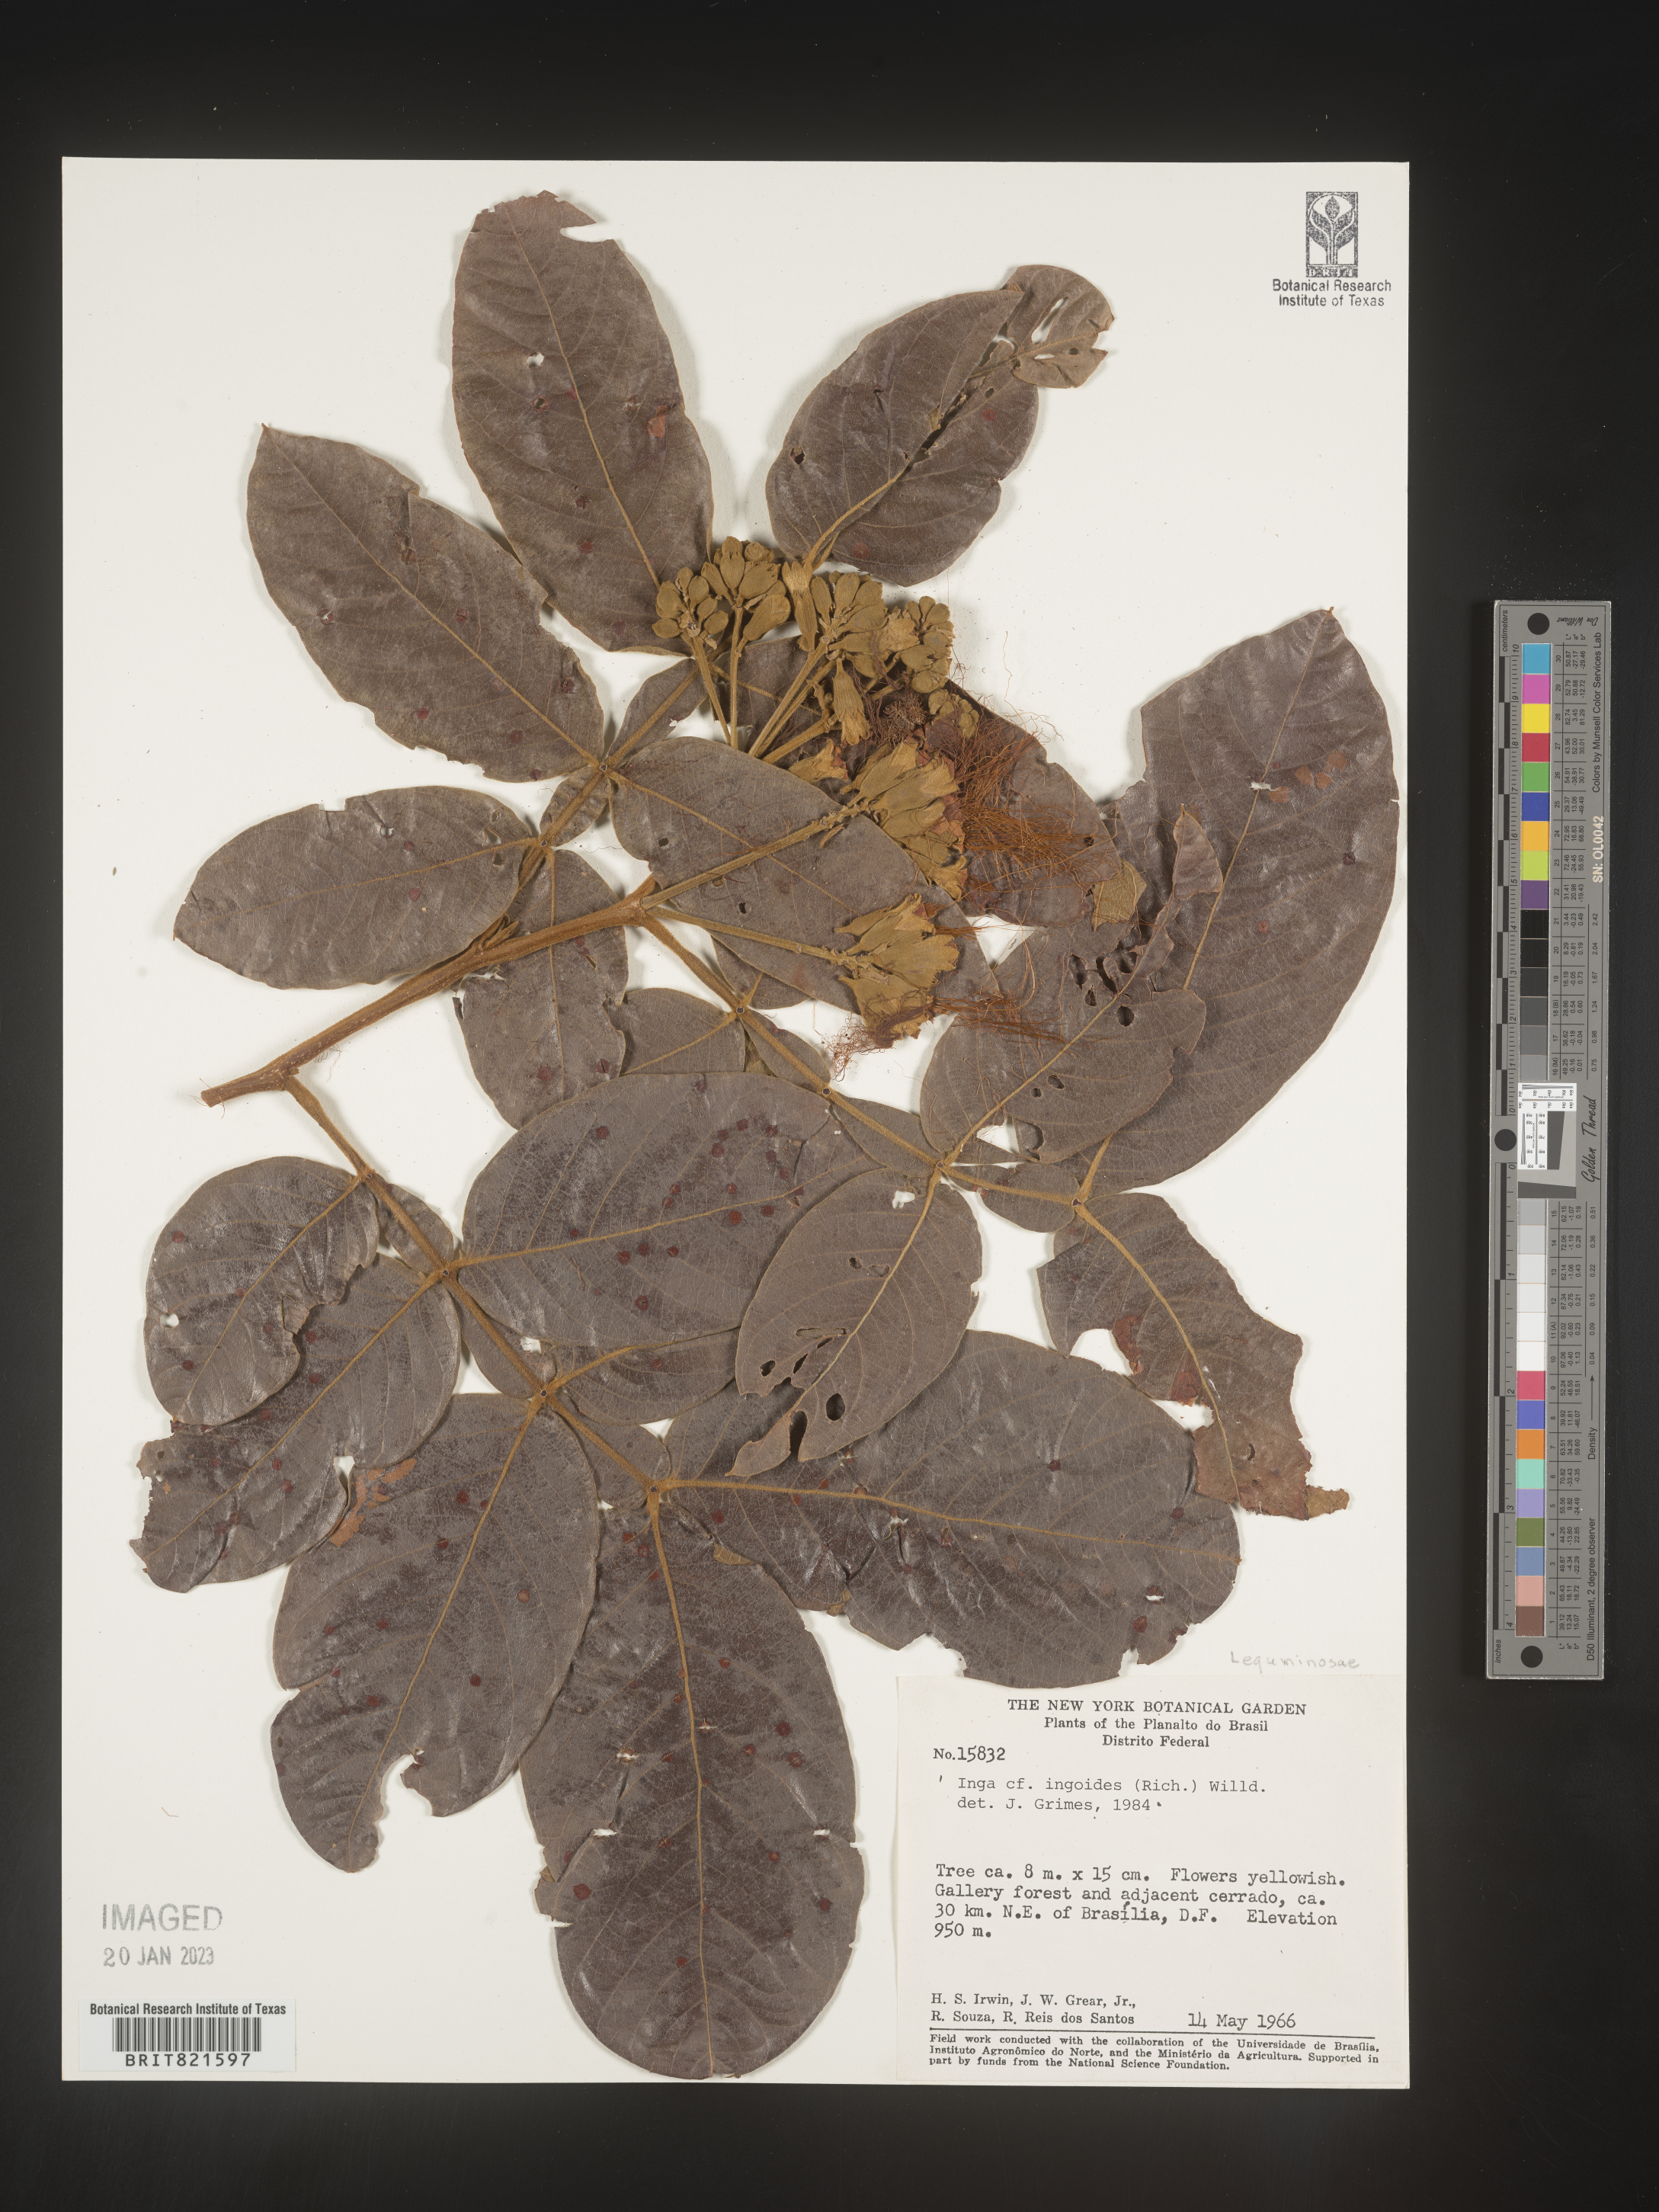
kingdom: Plantae
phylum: Tracheophyta
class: Magnoliopsida
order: Fabales
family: Fabaceae
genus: Inga
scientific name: Inga
